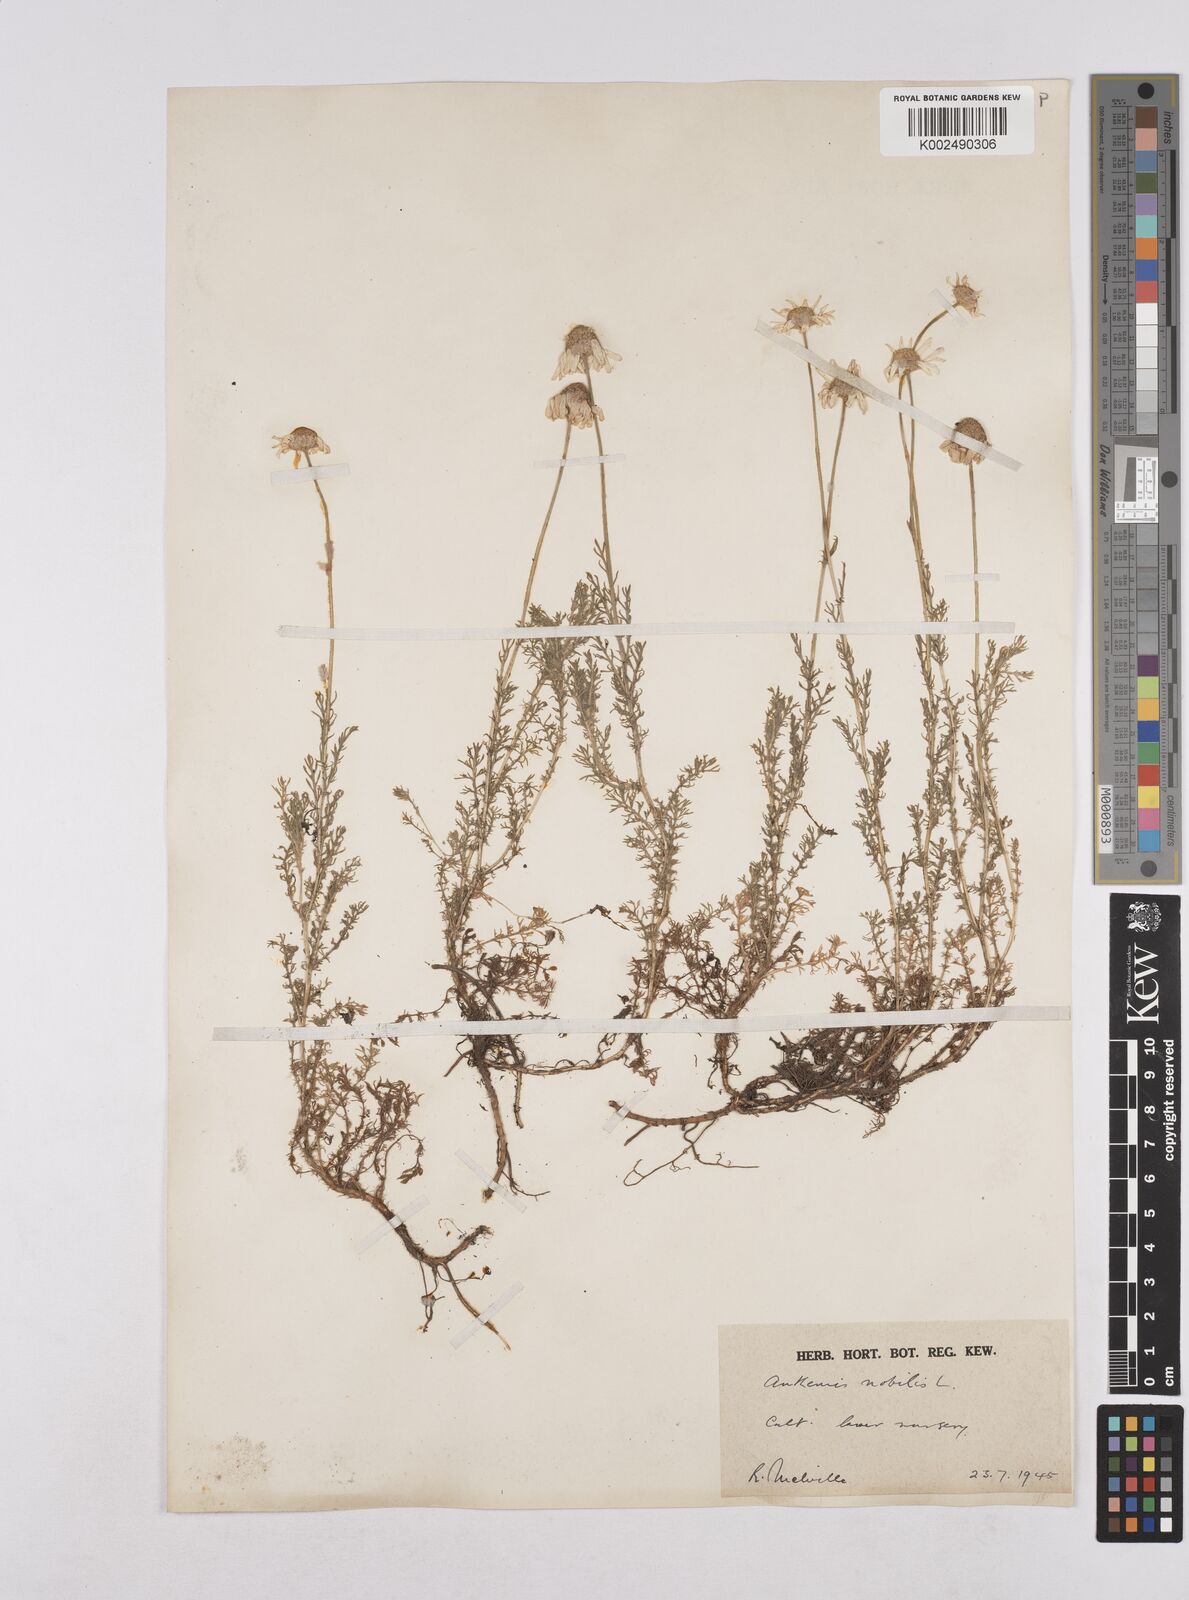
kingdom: Plantae
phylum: Tracheophyta
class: Magnoliopsida
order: Asterales
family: Asteraceae
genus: Matricaria
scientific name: Matricaria chamomilla
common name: Scented mayweed
